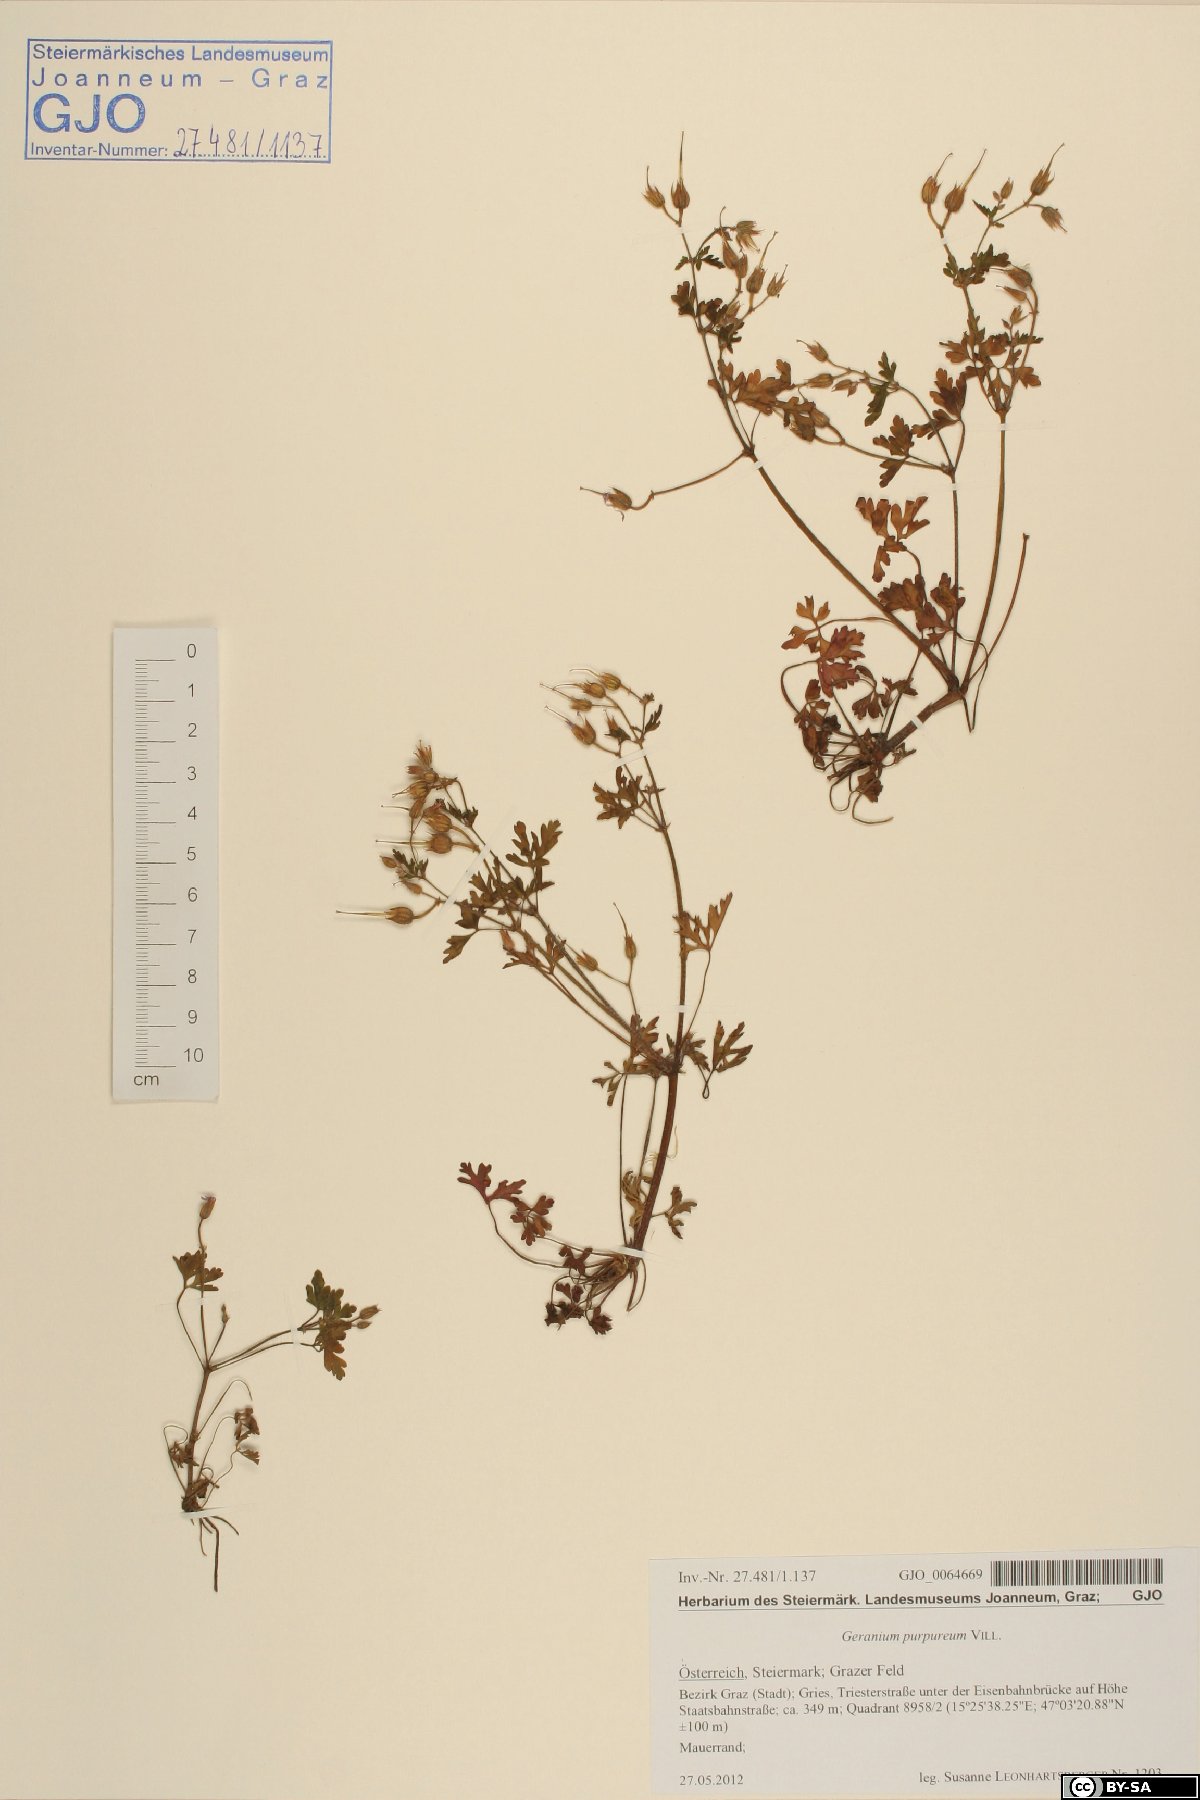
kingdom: Plantae
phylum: Tracheophyta
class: Magnoliopsida
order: Geraniales
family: Geraniaceae
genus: Geranium
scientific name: Geranium purpureum
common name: Little-robin
